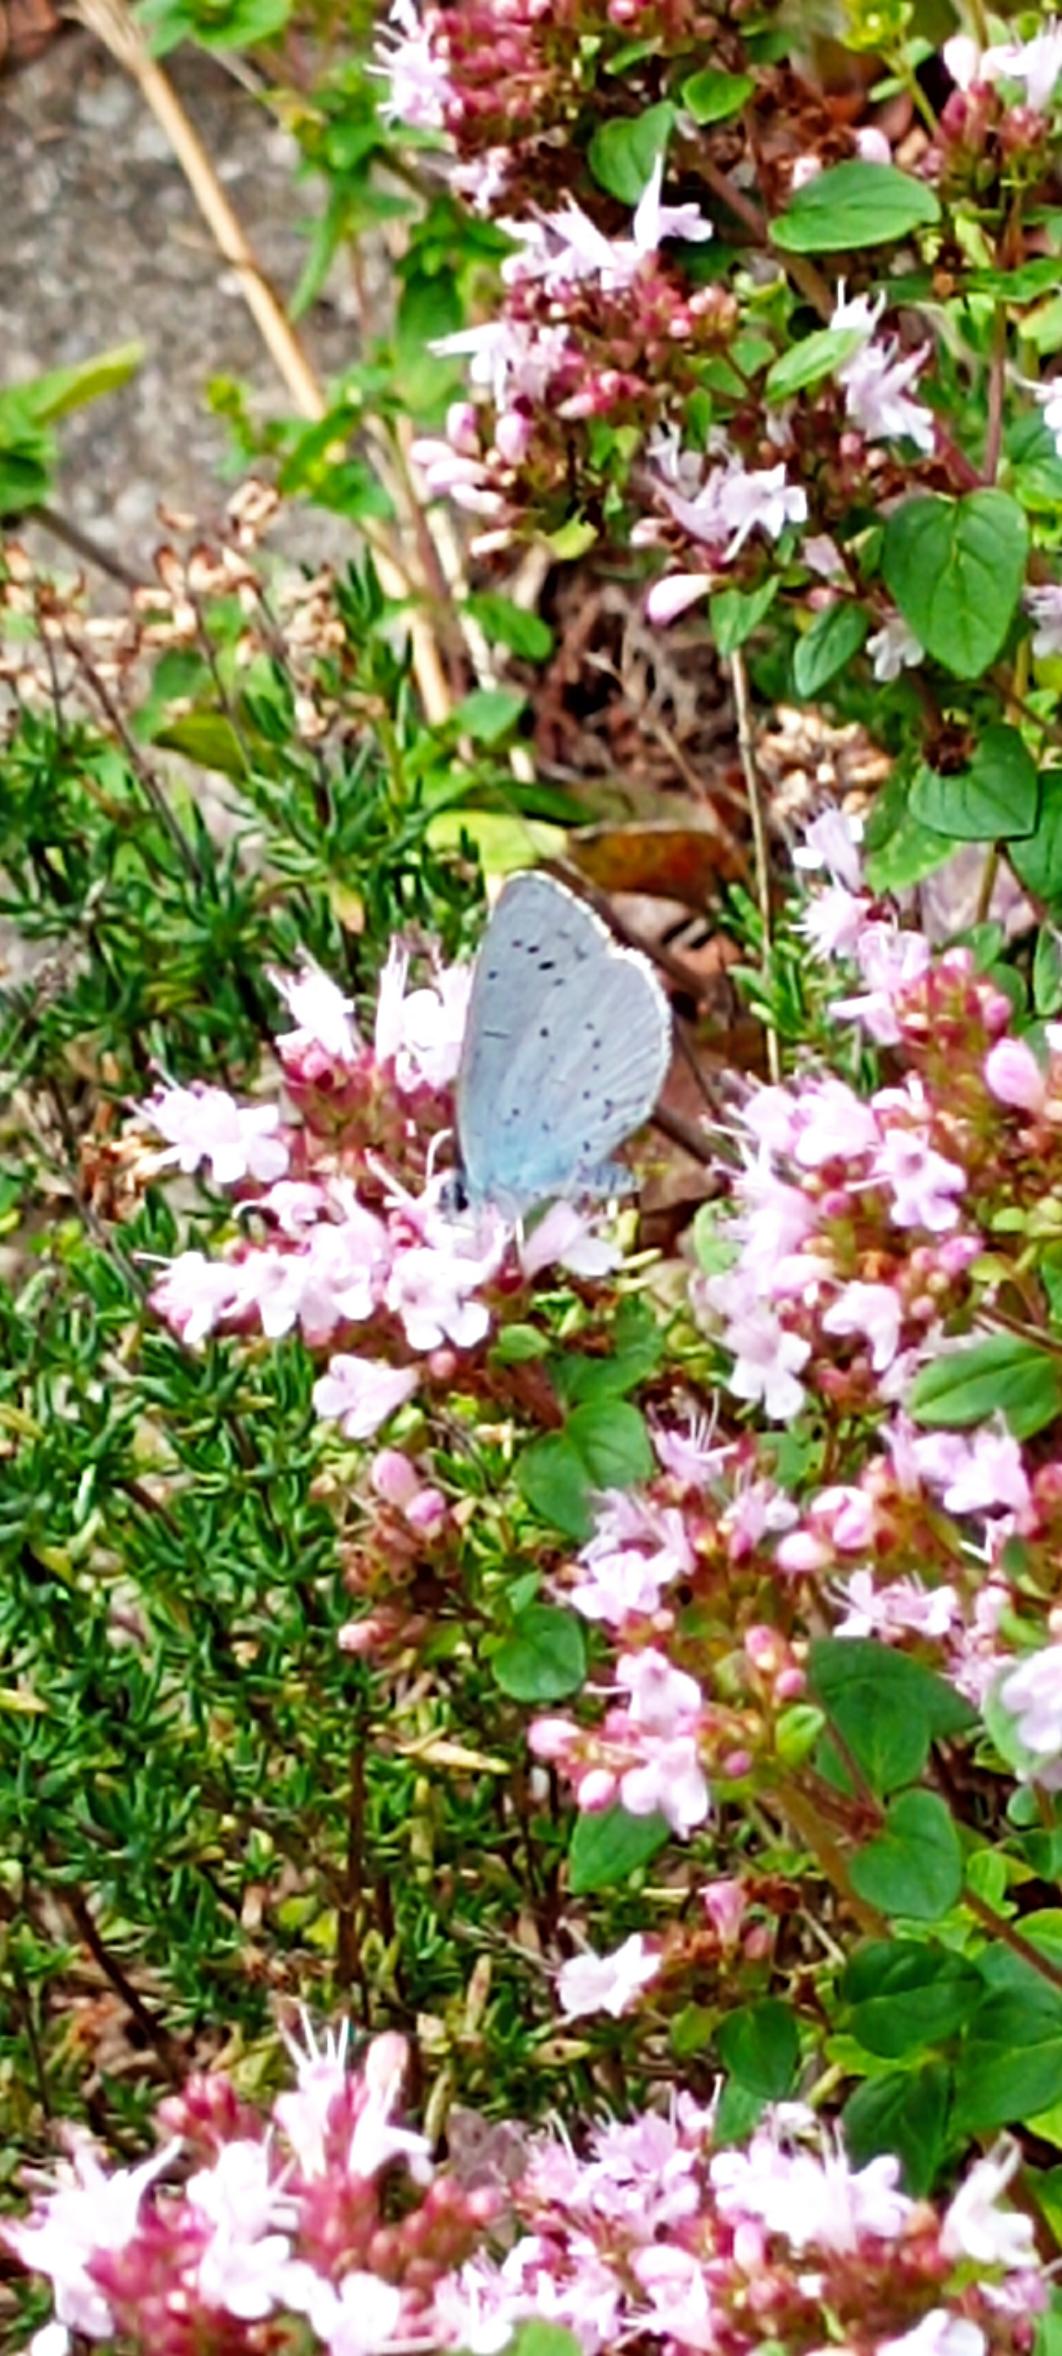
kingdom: Animalia
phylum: Arthropoda
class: Insecta
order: Lepidoptera
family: Lycaenidae
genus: Celastrina
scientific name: Celastrina argiolus
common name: Skovblåfugl
